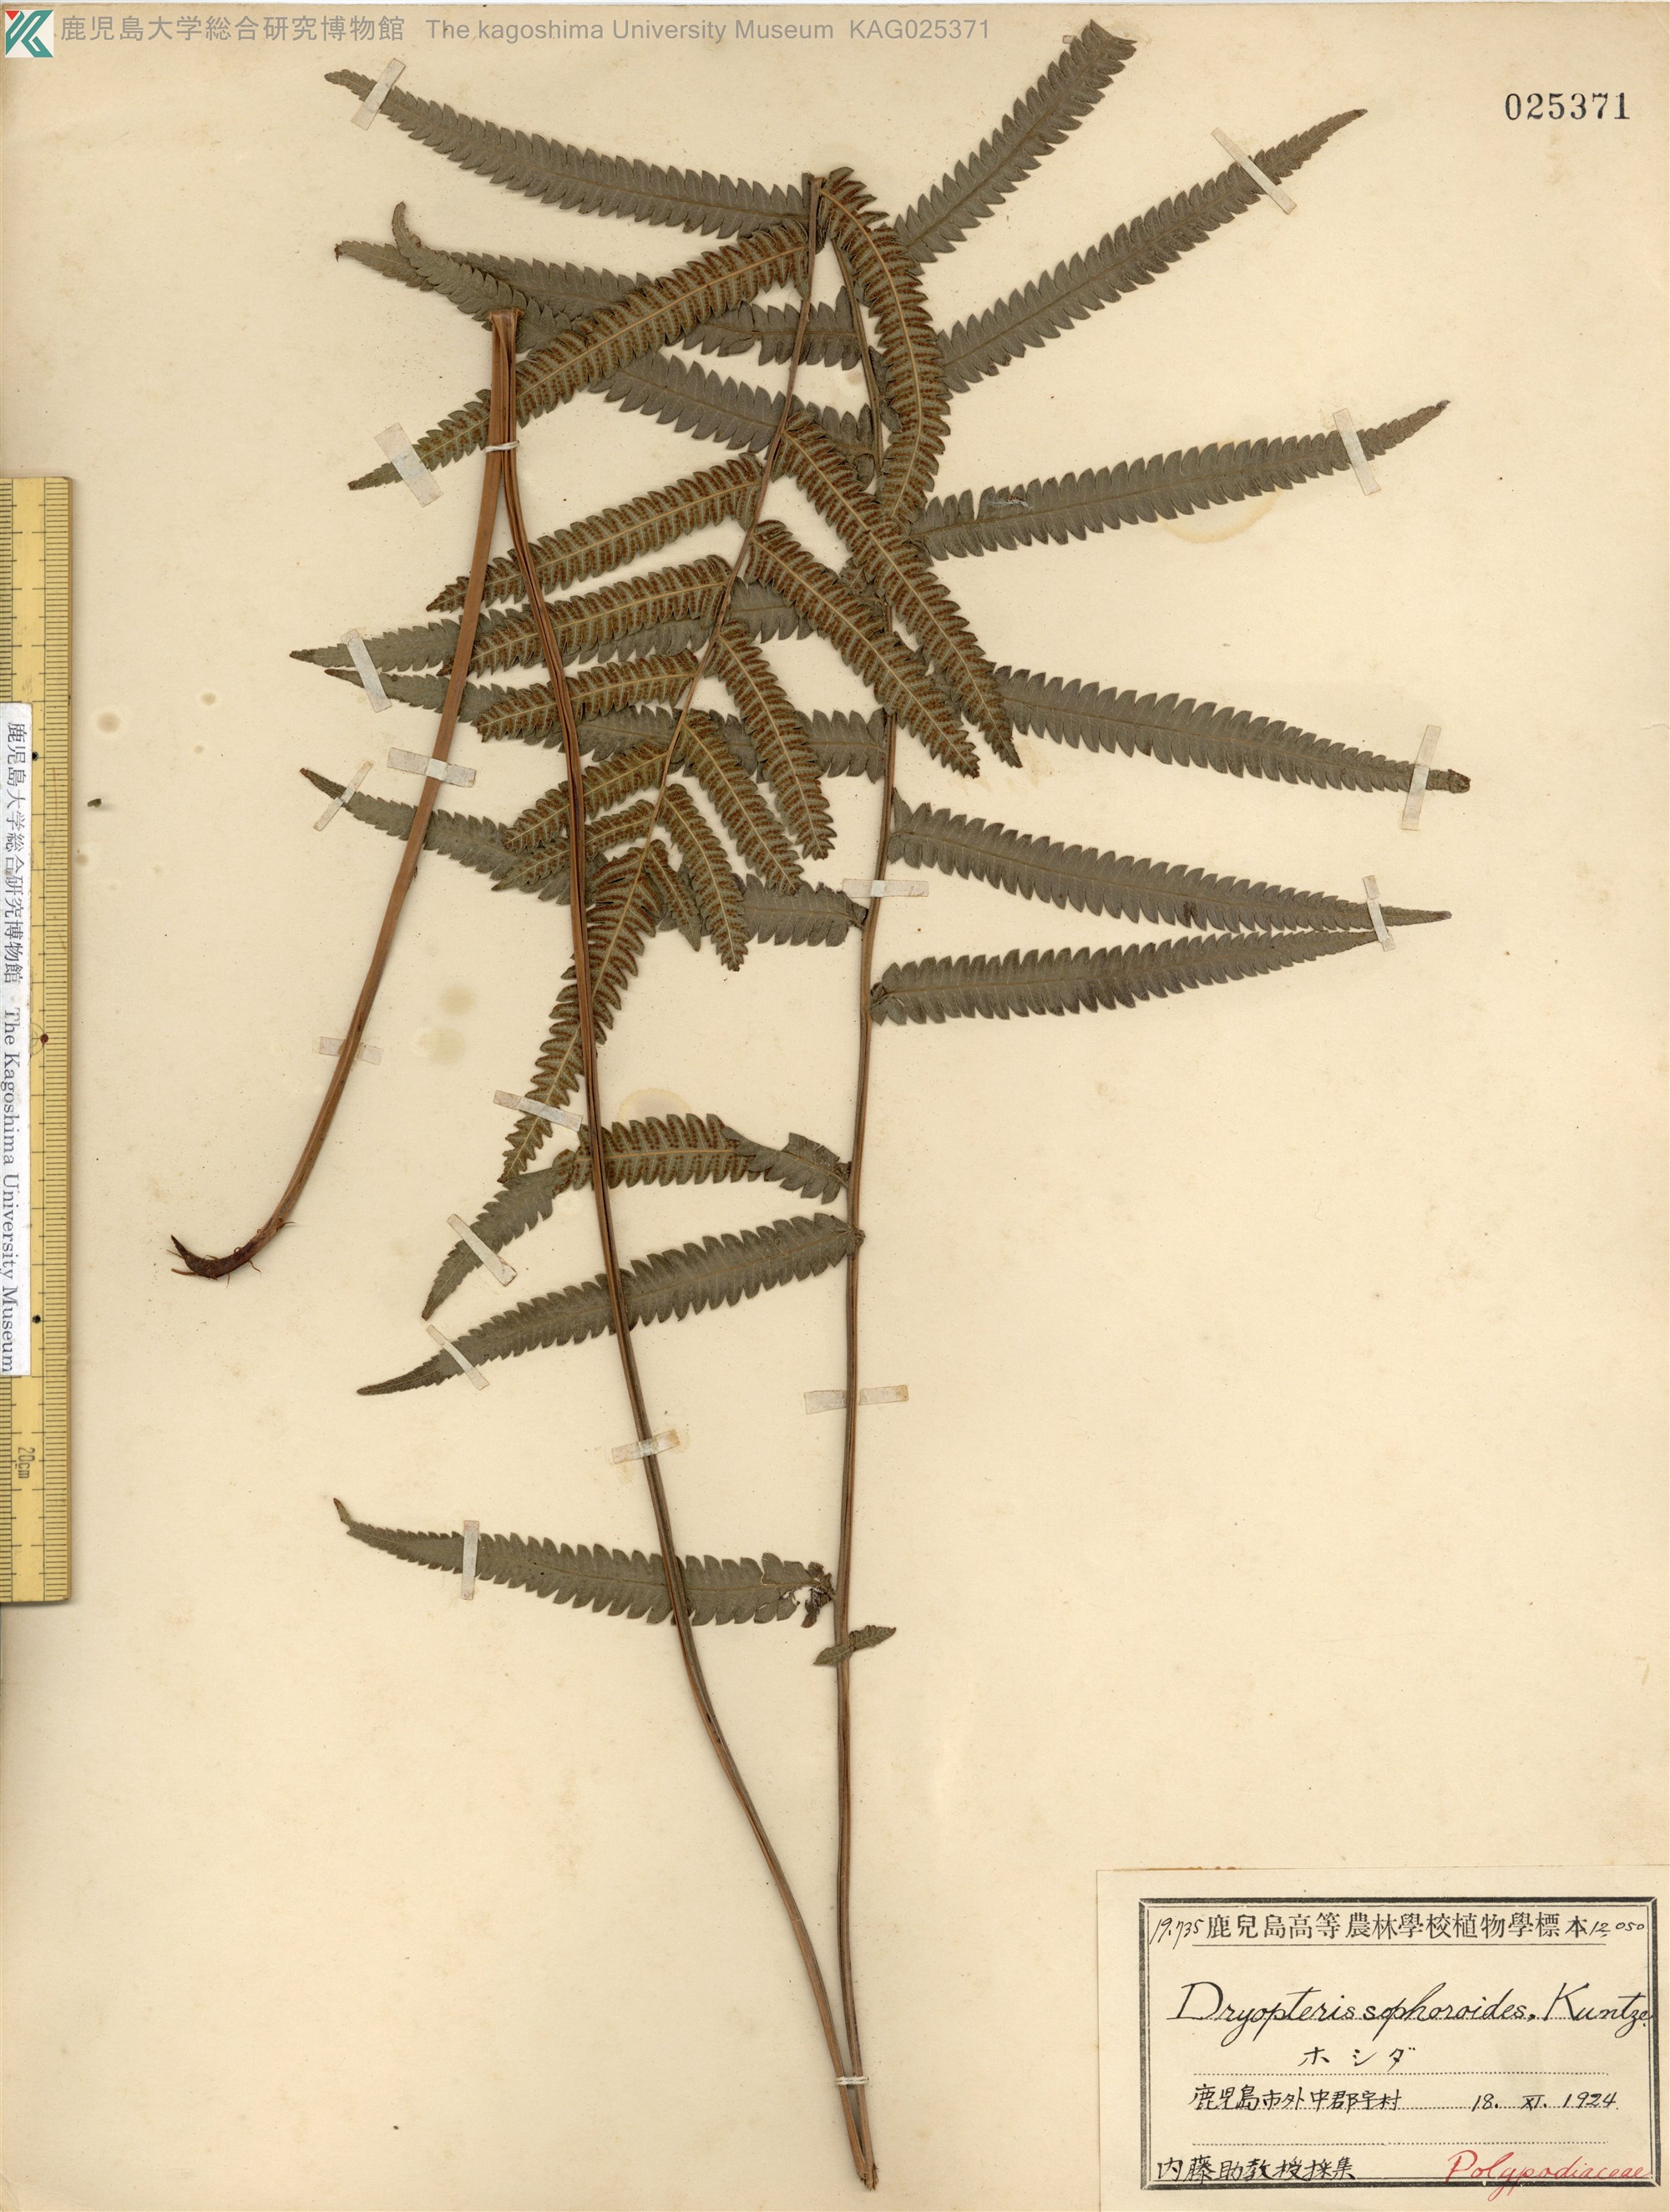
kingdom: Plantae
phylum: Tracheophyta
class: Polypodiopsida
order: Polypodiales
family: Thelypteridaceae
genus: Christella
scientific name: Christella acuminata
